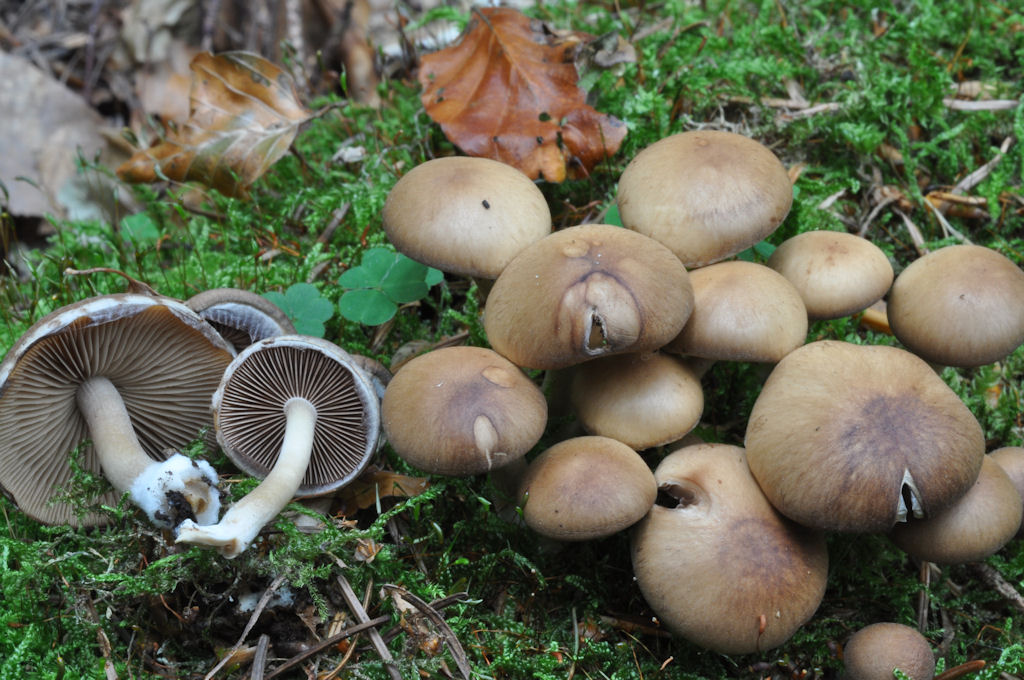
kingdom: Fungi
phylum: Basidiomycota
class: Agaricomycetes
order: Agaricales
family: Psathyrellaceae
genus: Psathyrella
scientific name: Psathyrella piluliformis
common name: lysstokket mørkhat
